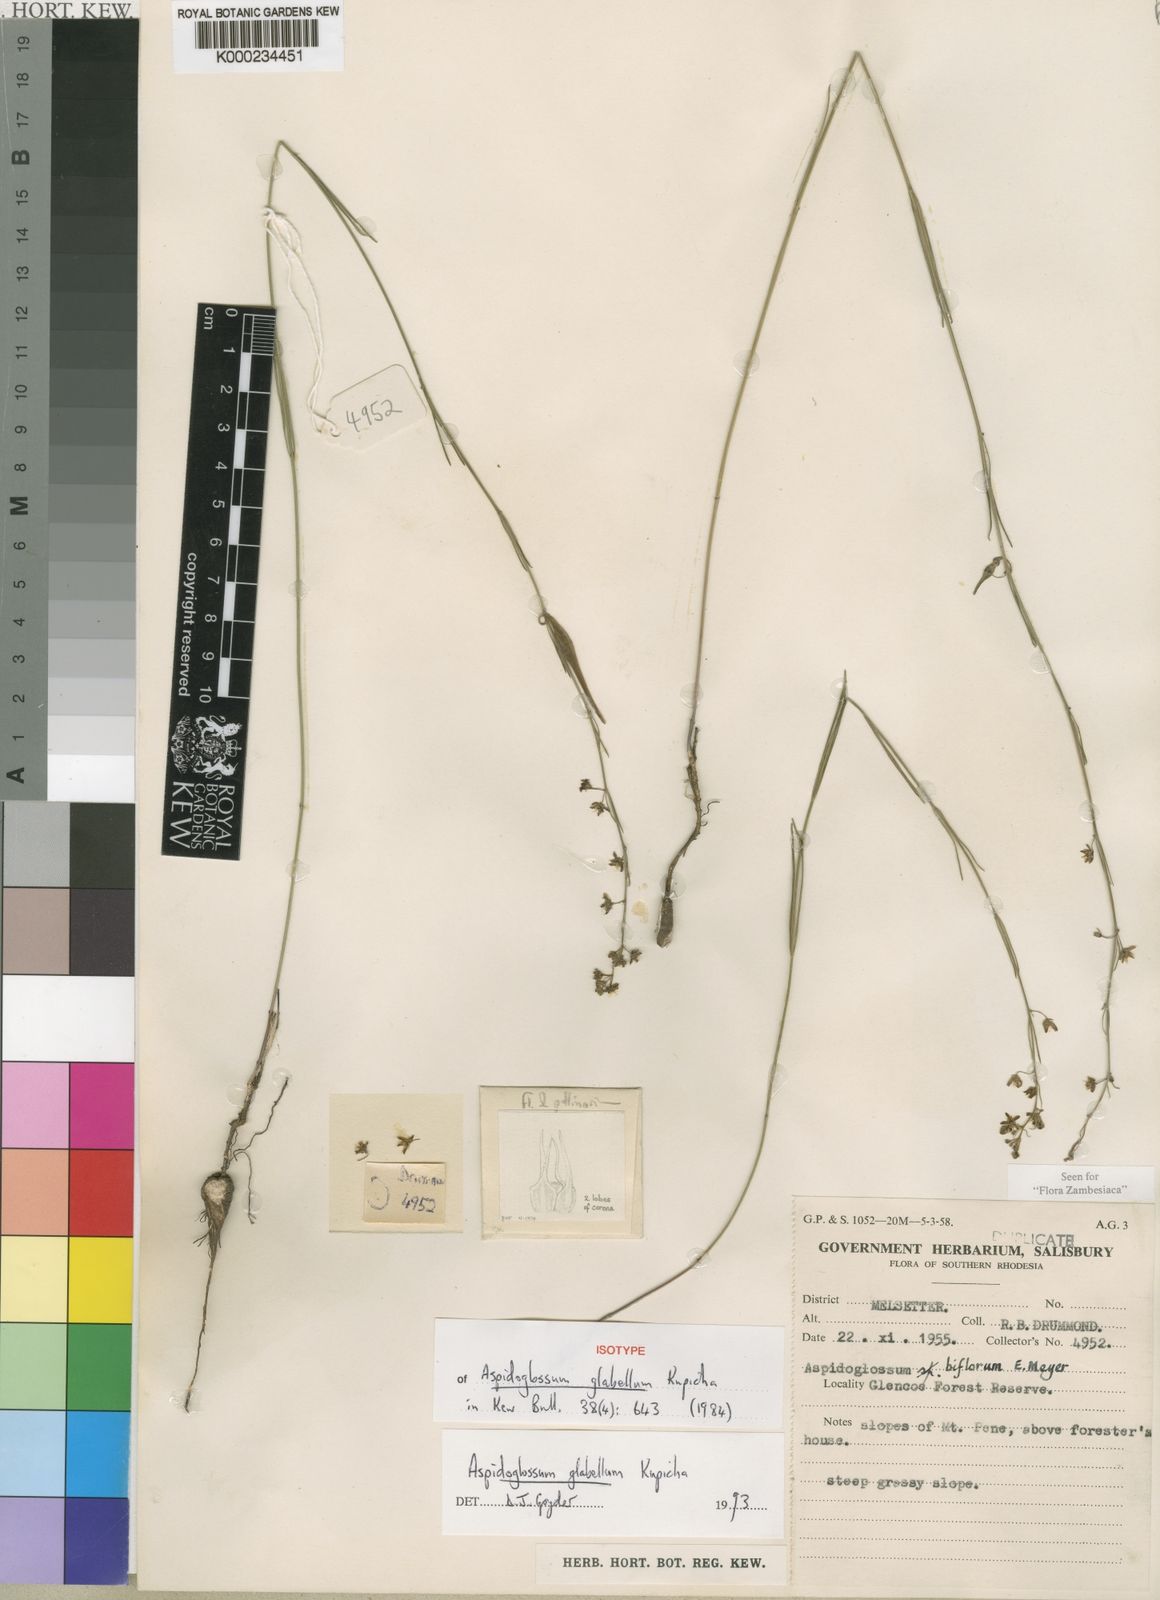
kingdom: Plantae
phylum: Tracheophyta
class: Magnoliopsida
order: Gentianales
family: Apocynaceae
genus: Aspidoglossum
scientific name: Aspidoglossum glabellum
